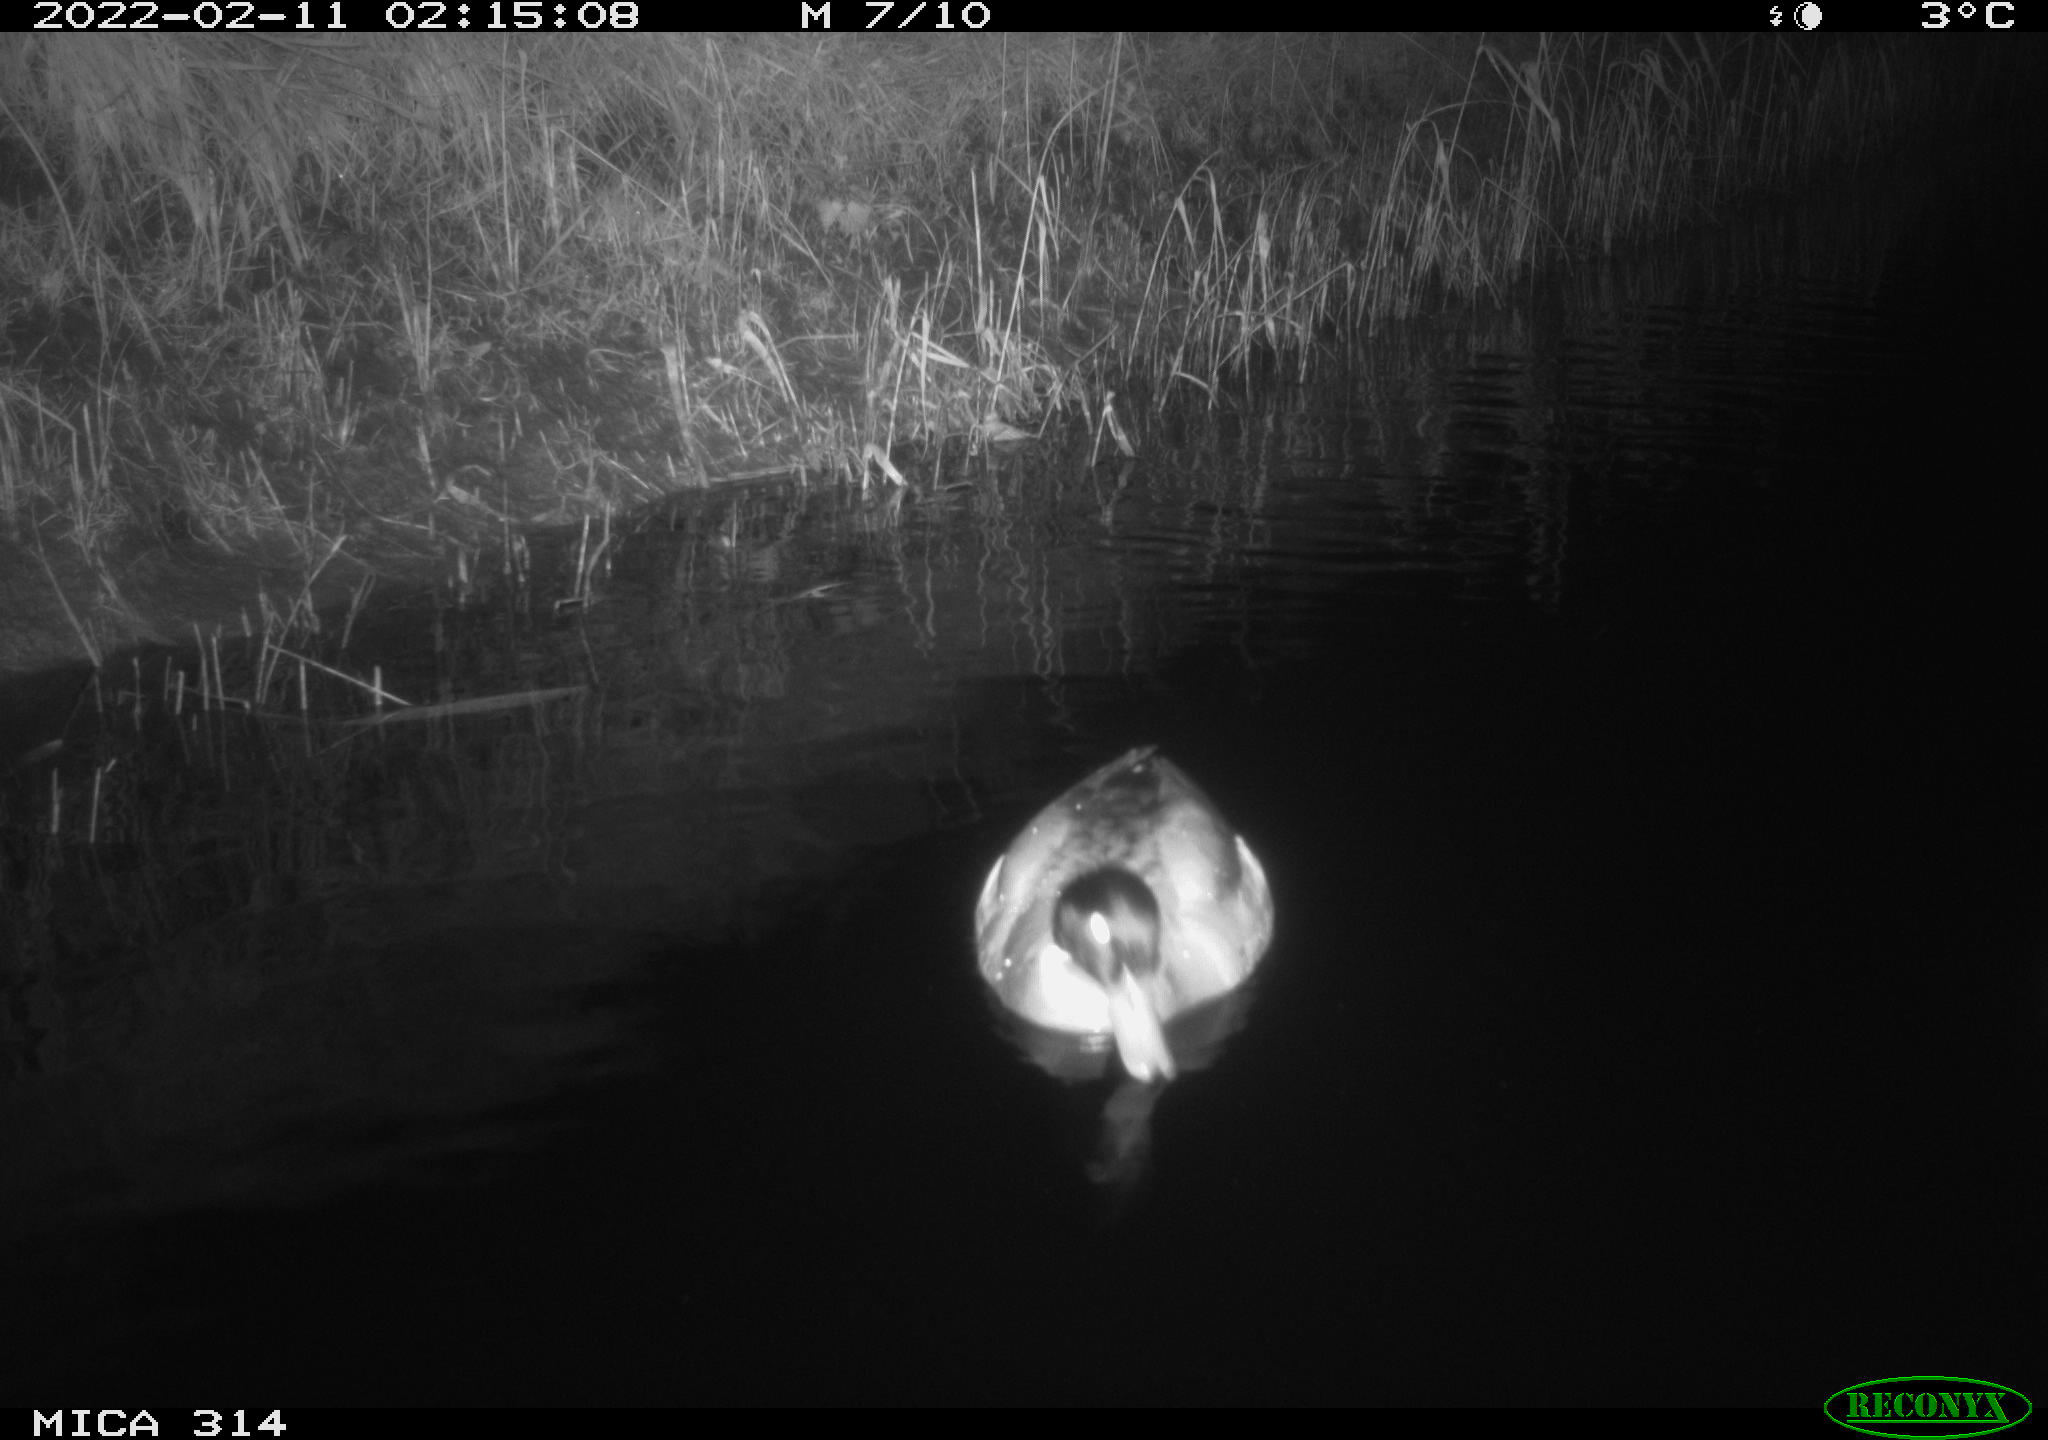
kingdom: Animalia
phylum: Chordata
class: Aves
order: Anseriformes
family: Anatidae
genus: Anas
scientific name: Anas platyrhynchos
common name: Mallard
